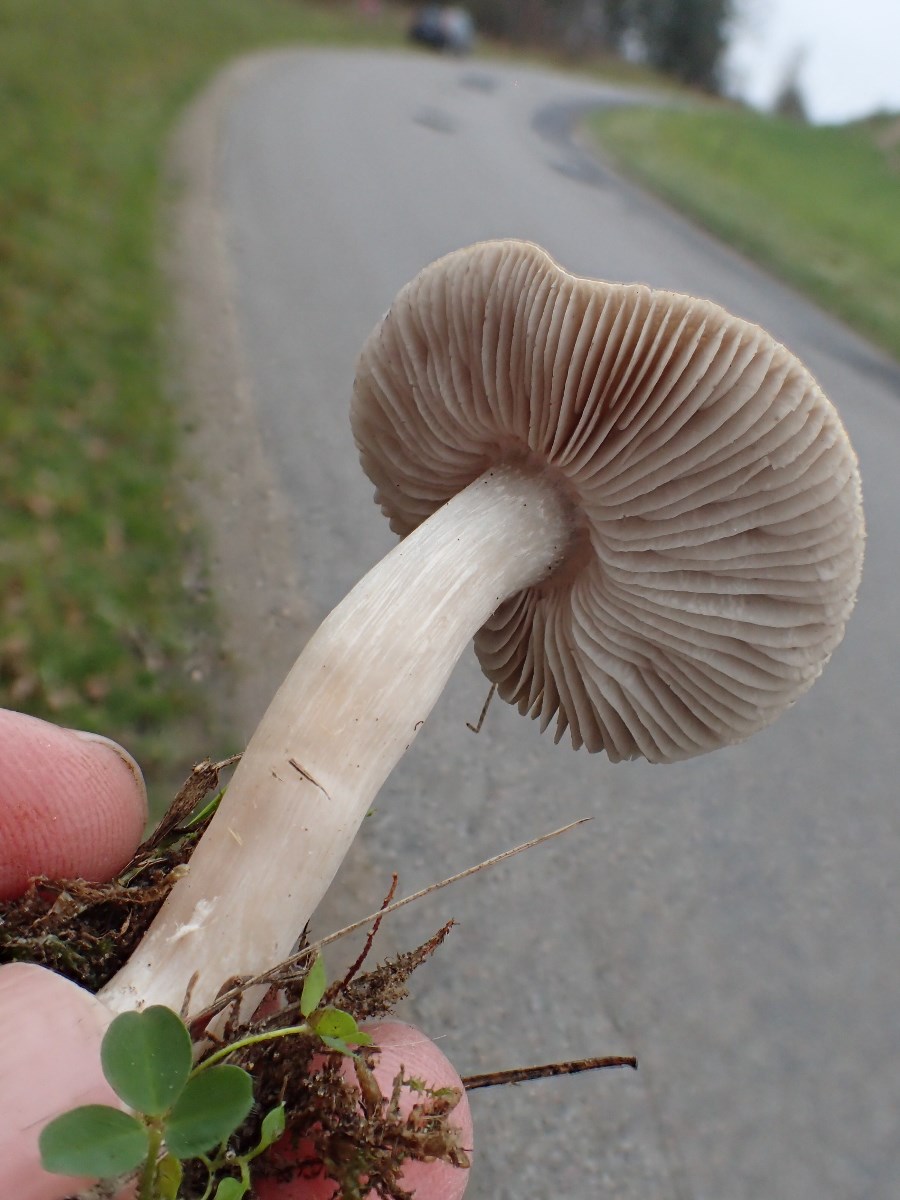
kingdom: Fungi
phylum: Basidiomycota
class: Agaricomycetes
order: Agaricales
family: Tricholomataceae
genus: Tricholoma
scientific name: Tricholoma terreum
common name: jordfarvet ridderhat
